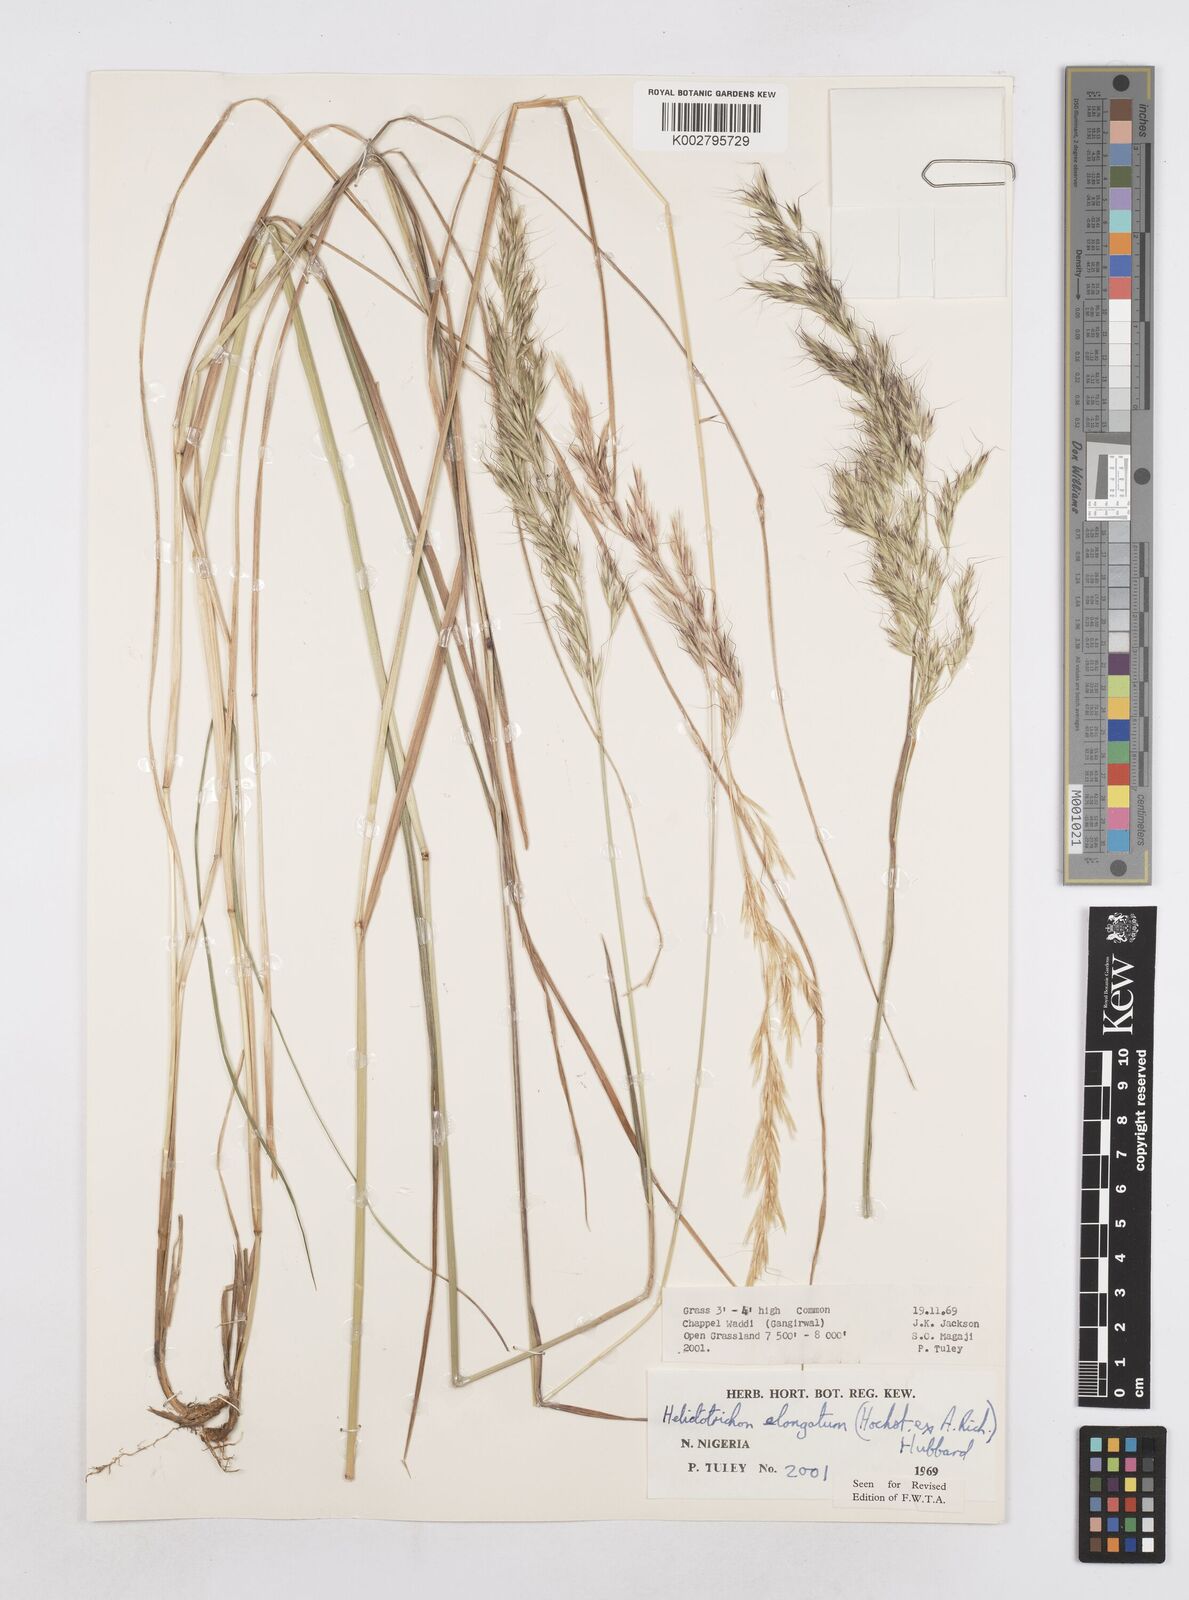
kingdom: Plantae
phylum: Tracheophyta
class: Liliopsida
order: Poales
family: Poaceae
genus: Trisetopsis
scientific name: Trisetopsis elongata
